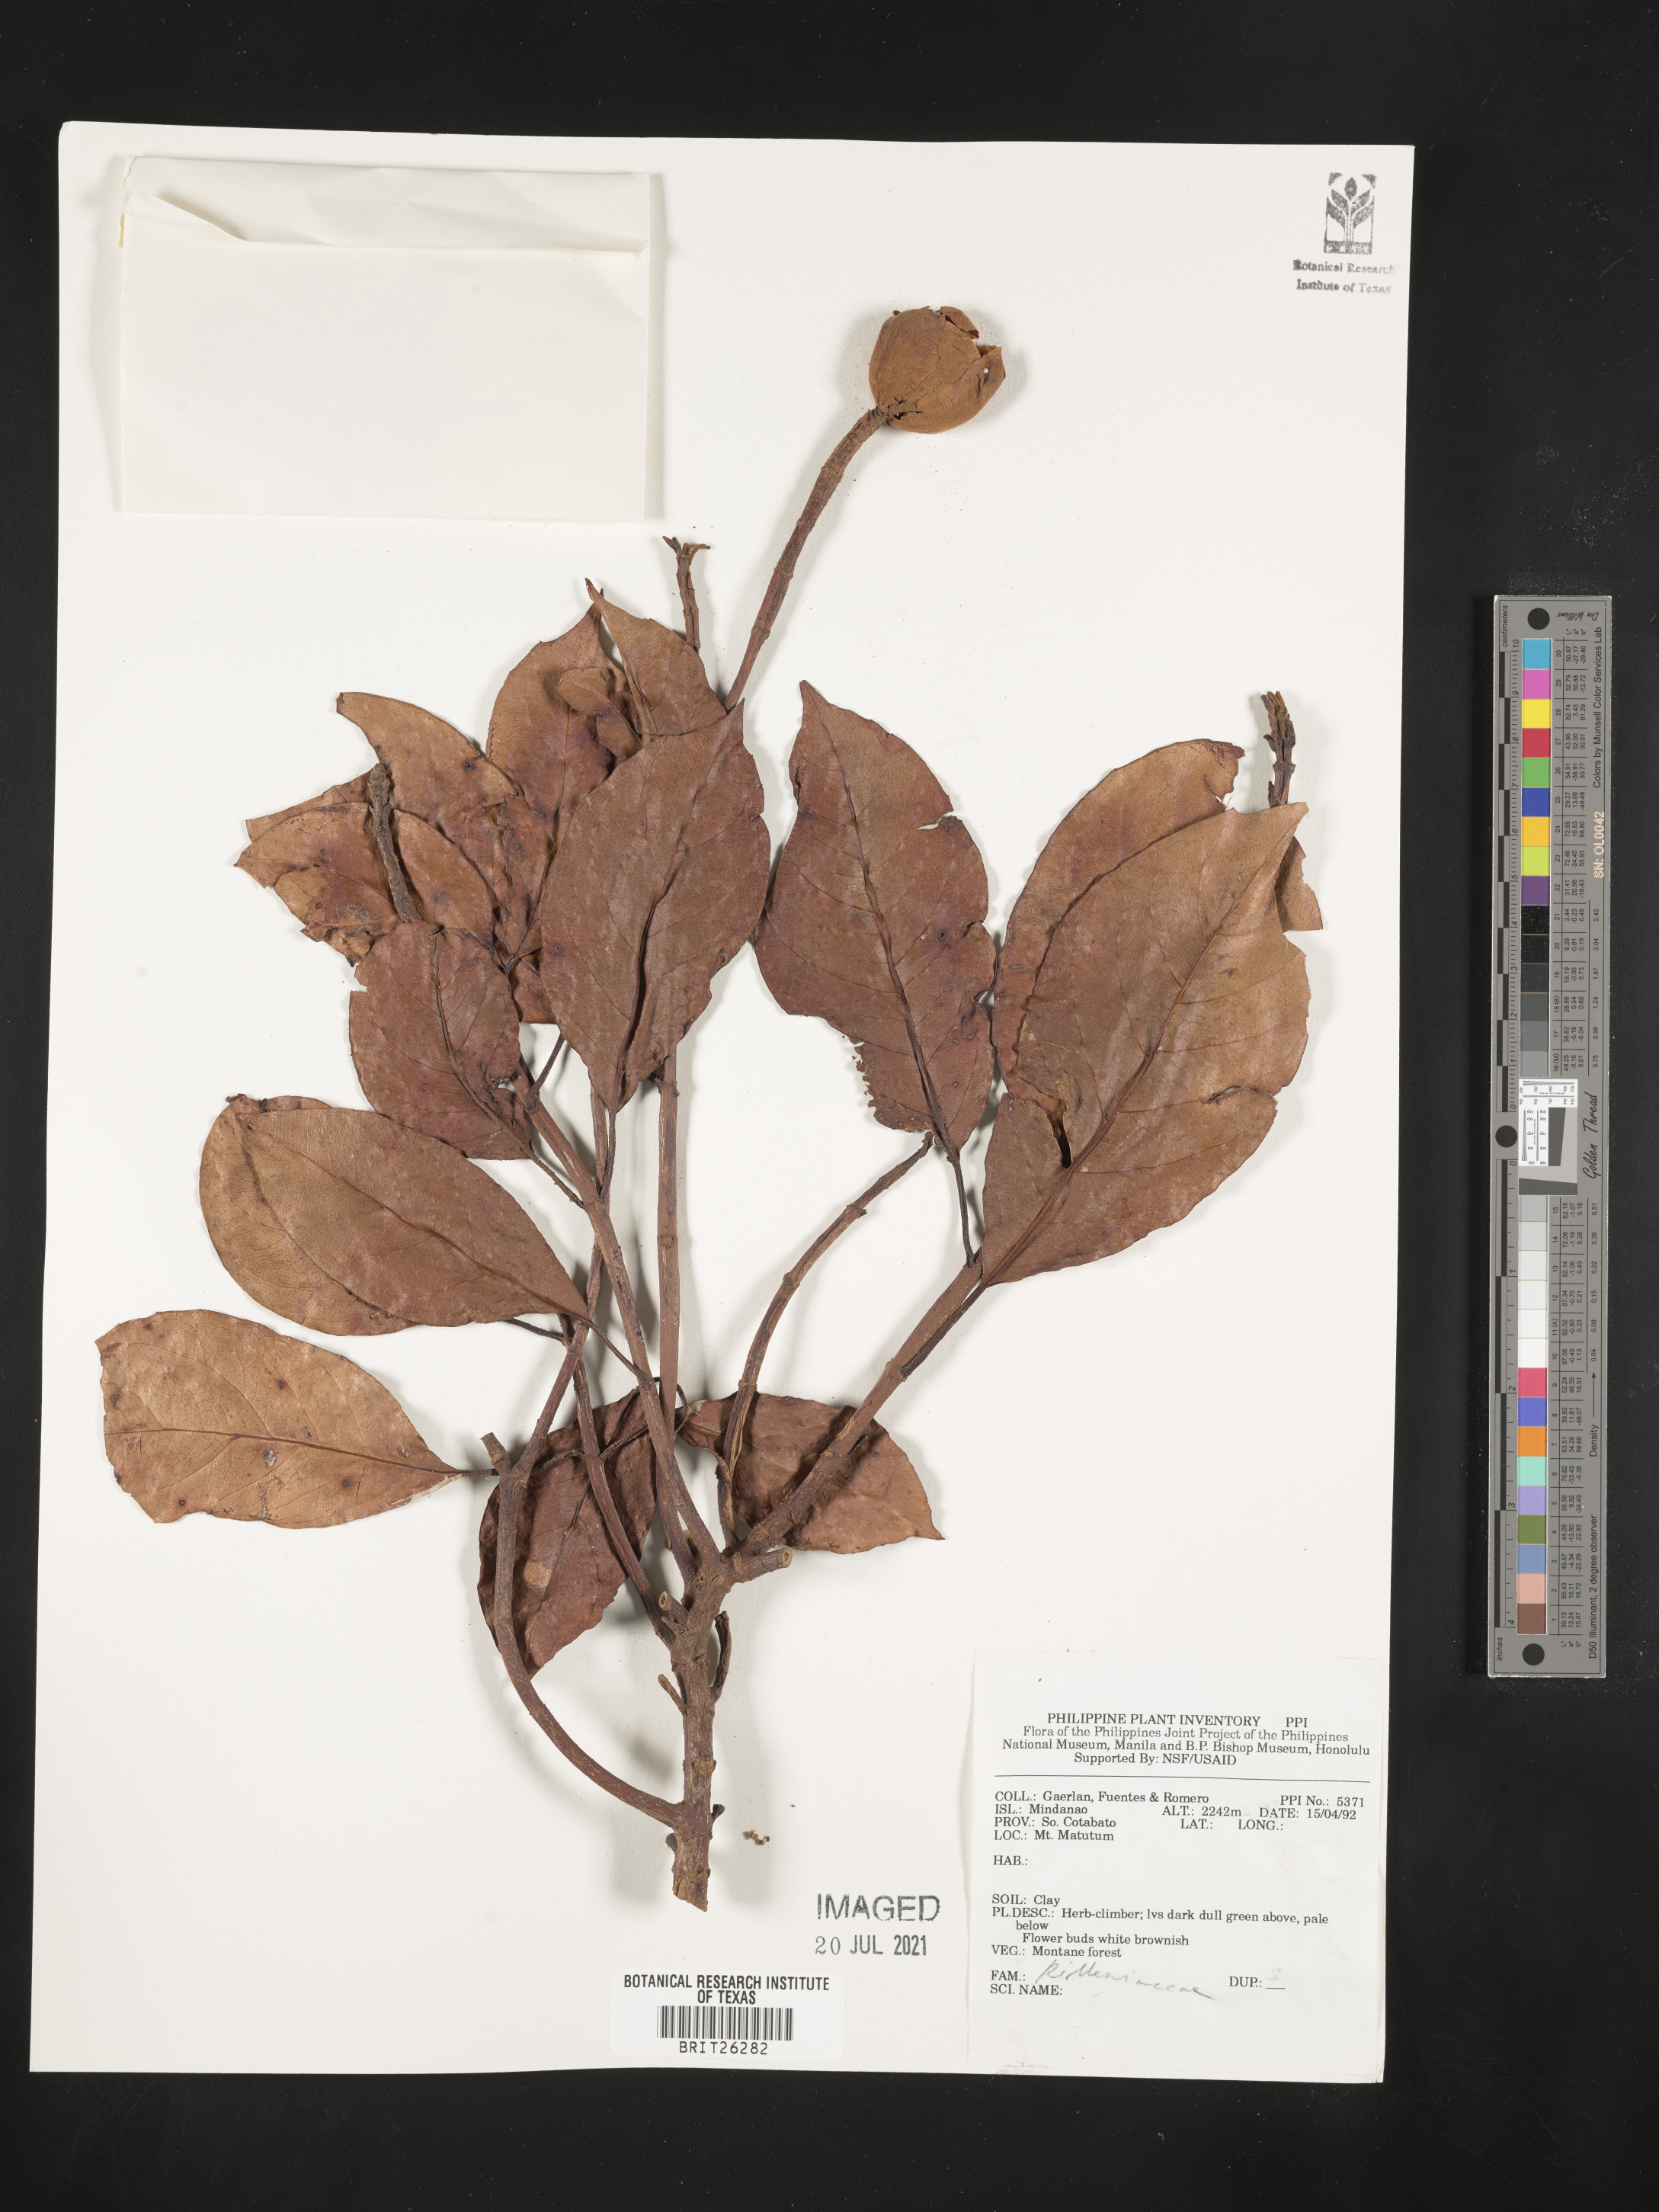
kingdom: Plantae
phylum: Tracheophyta
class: Magnoliopsida
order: Dilleniales
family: Dilleniaceae
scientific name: Dilleniaceae
